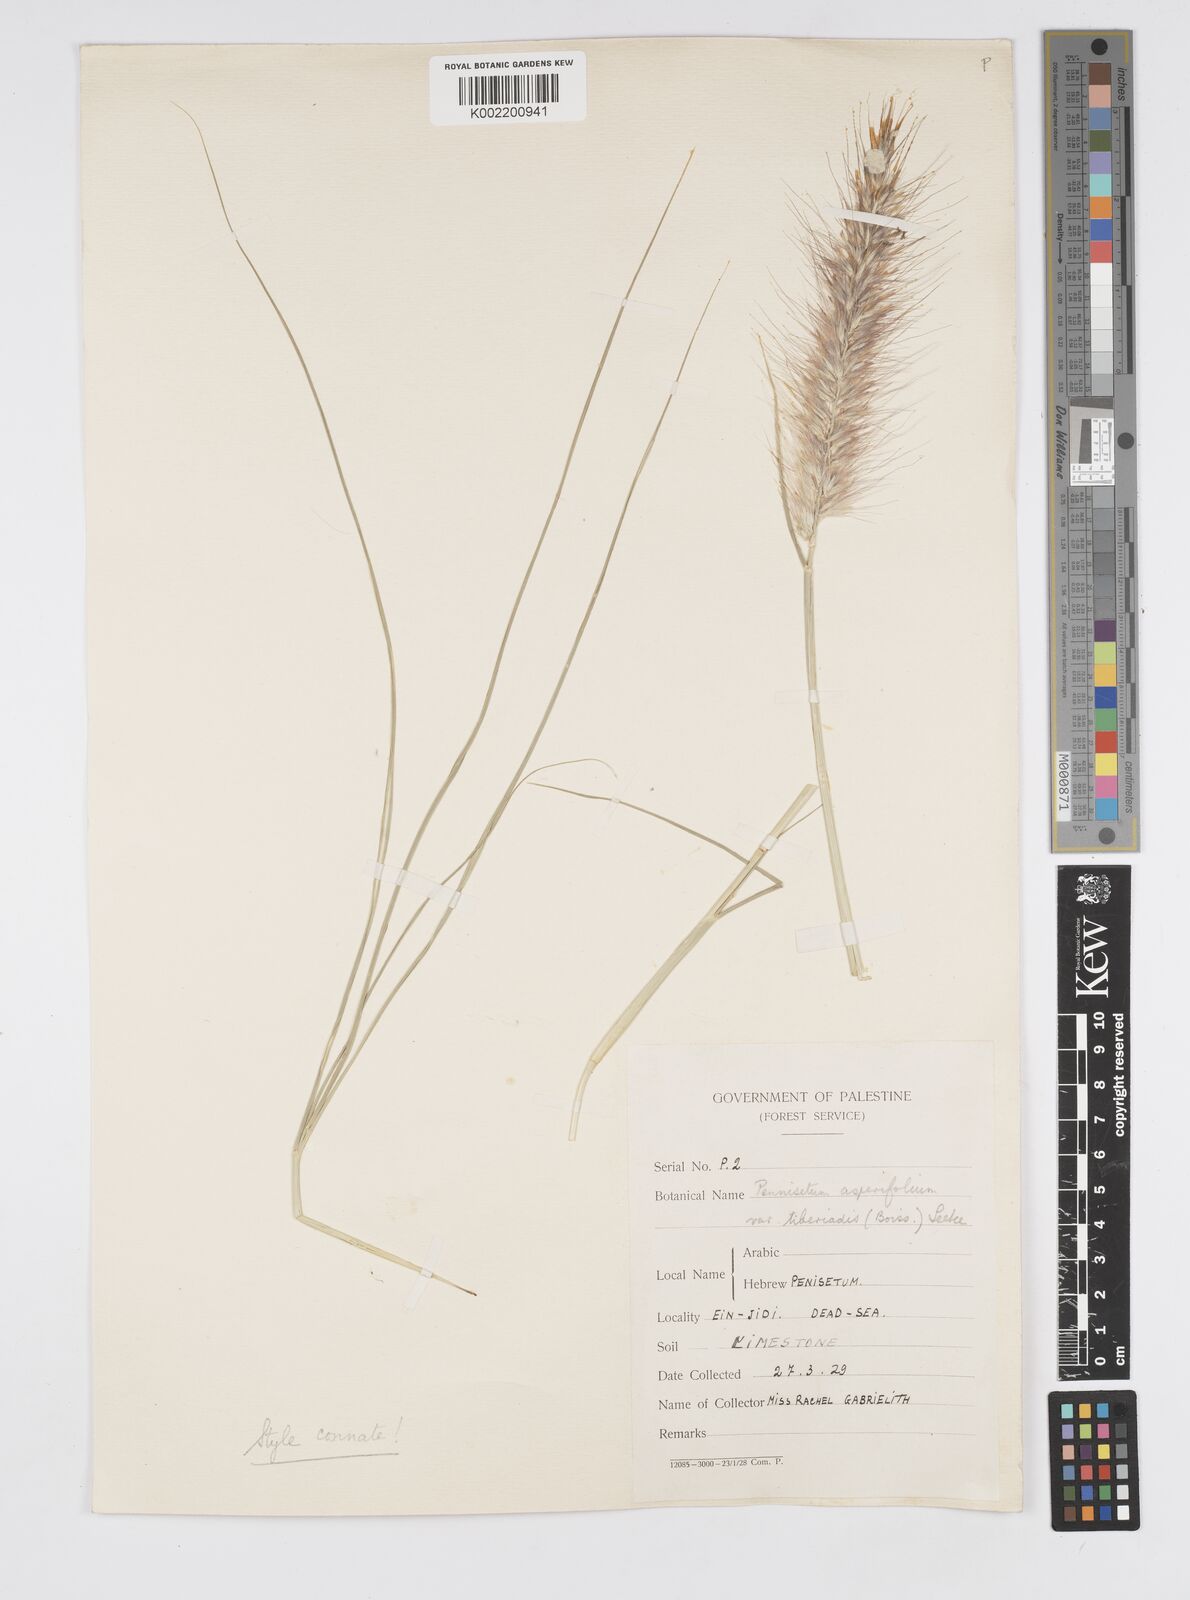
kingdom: Plantae
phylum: Tracheophyta
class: Liliopsida
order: Poales
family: Poaceae
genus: Cenchrus
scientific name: Cenchrus setaceus
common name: Crimson fountaingrass
